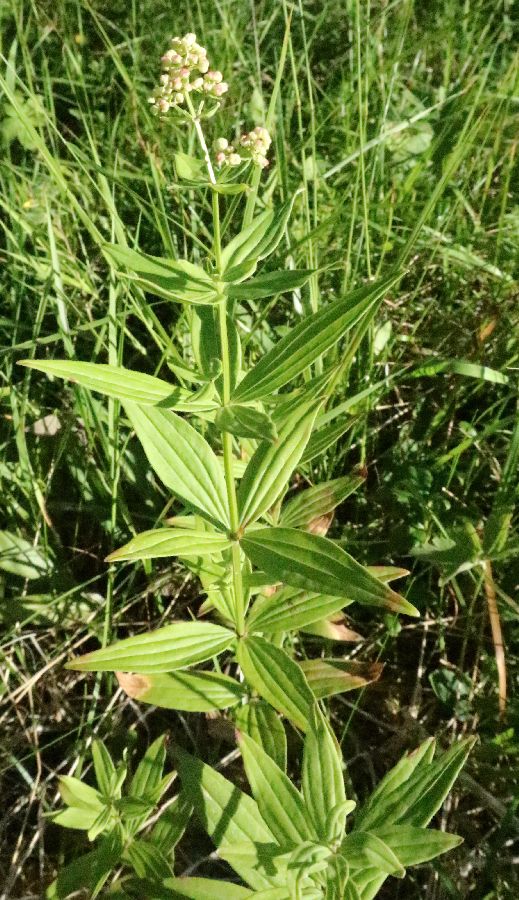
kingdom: Plantae
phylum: Tracheophyta
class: Magnoliopsida
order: Gentianales
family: Rubiaceae
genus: Galium
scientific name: Galium boreale
